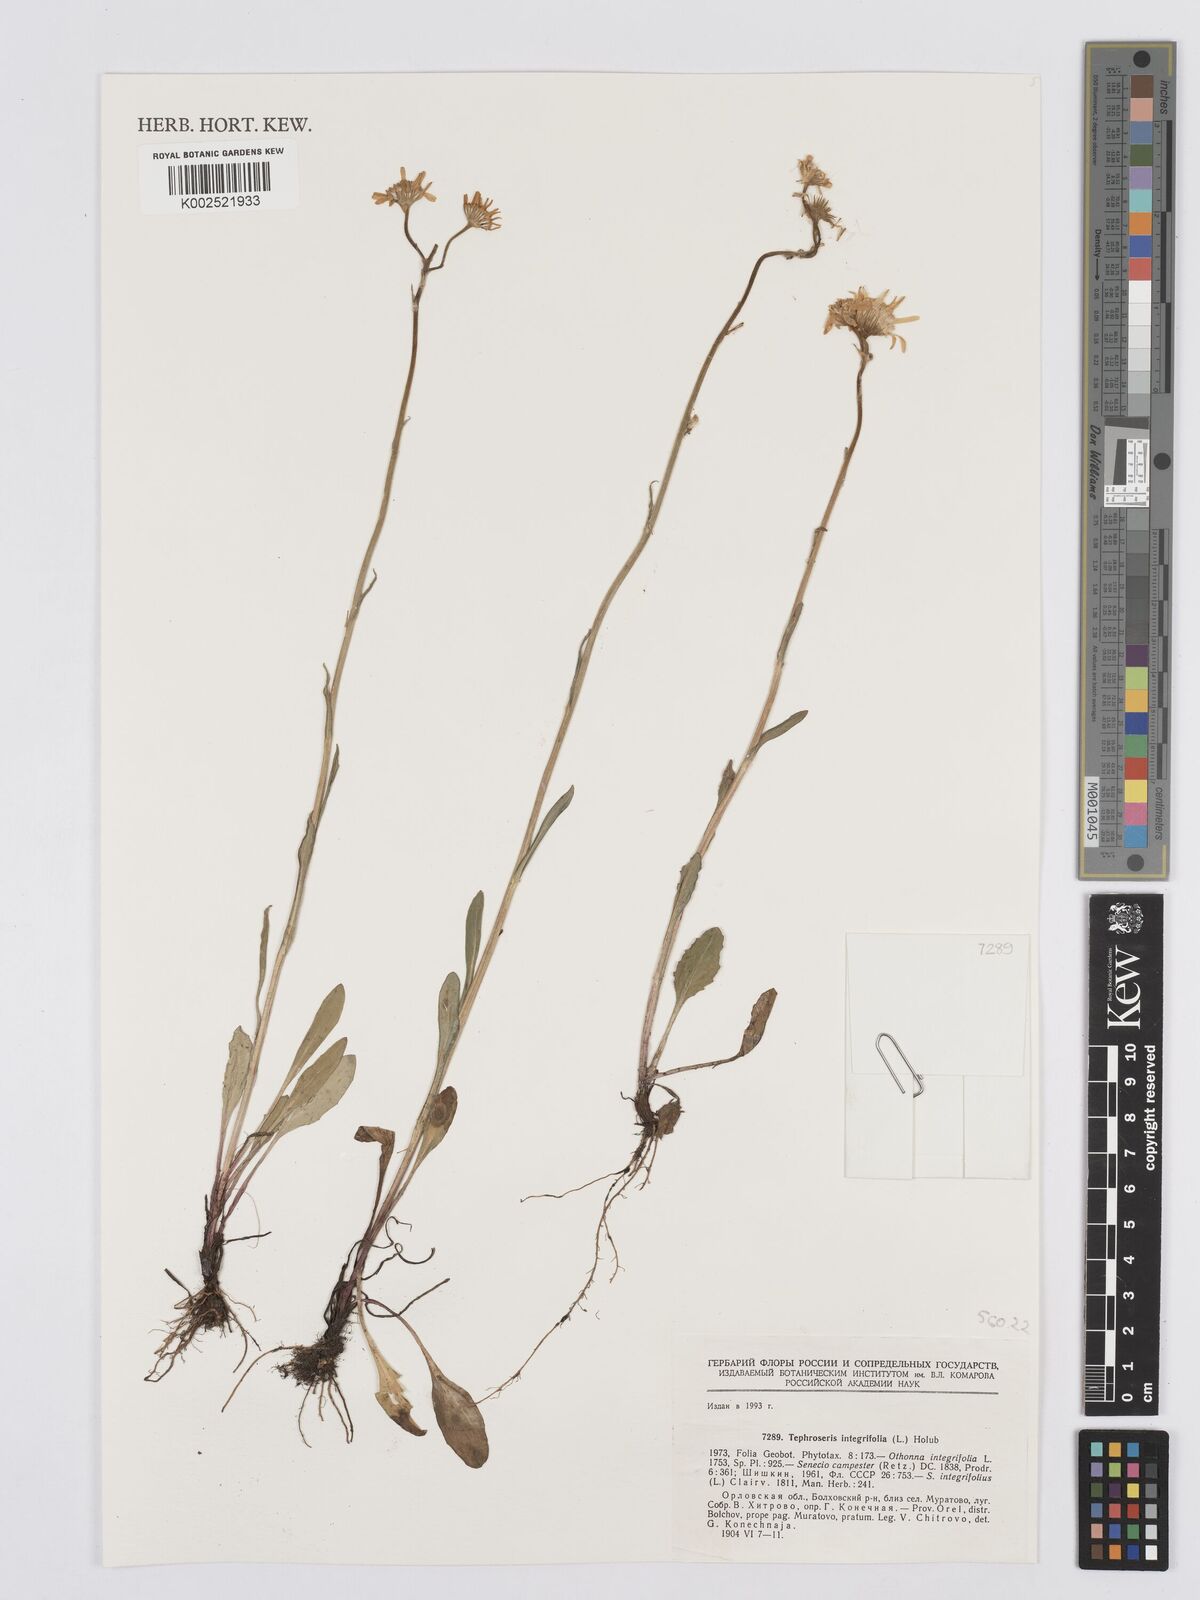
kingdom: Plantae
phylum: Tracheophyta
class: Magnoliopsida
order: Asterales
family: Asteraceae
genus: Tephroseris
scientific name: Tephroseris integrifolia
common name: Field fleawort
